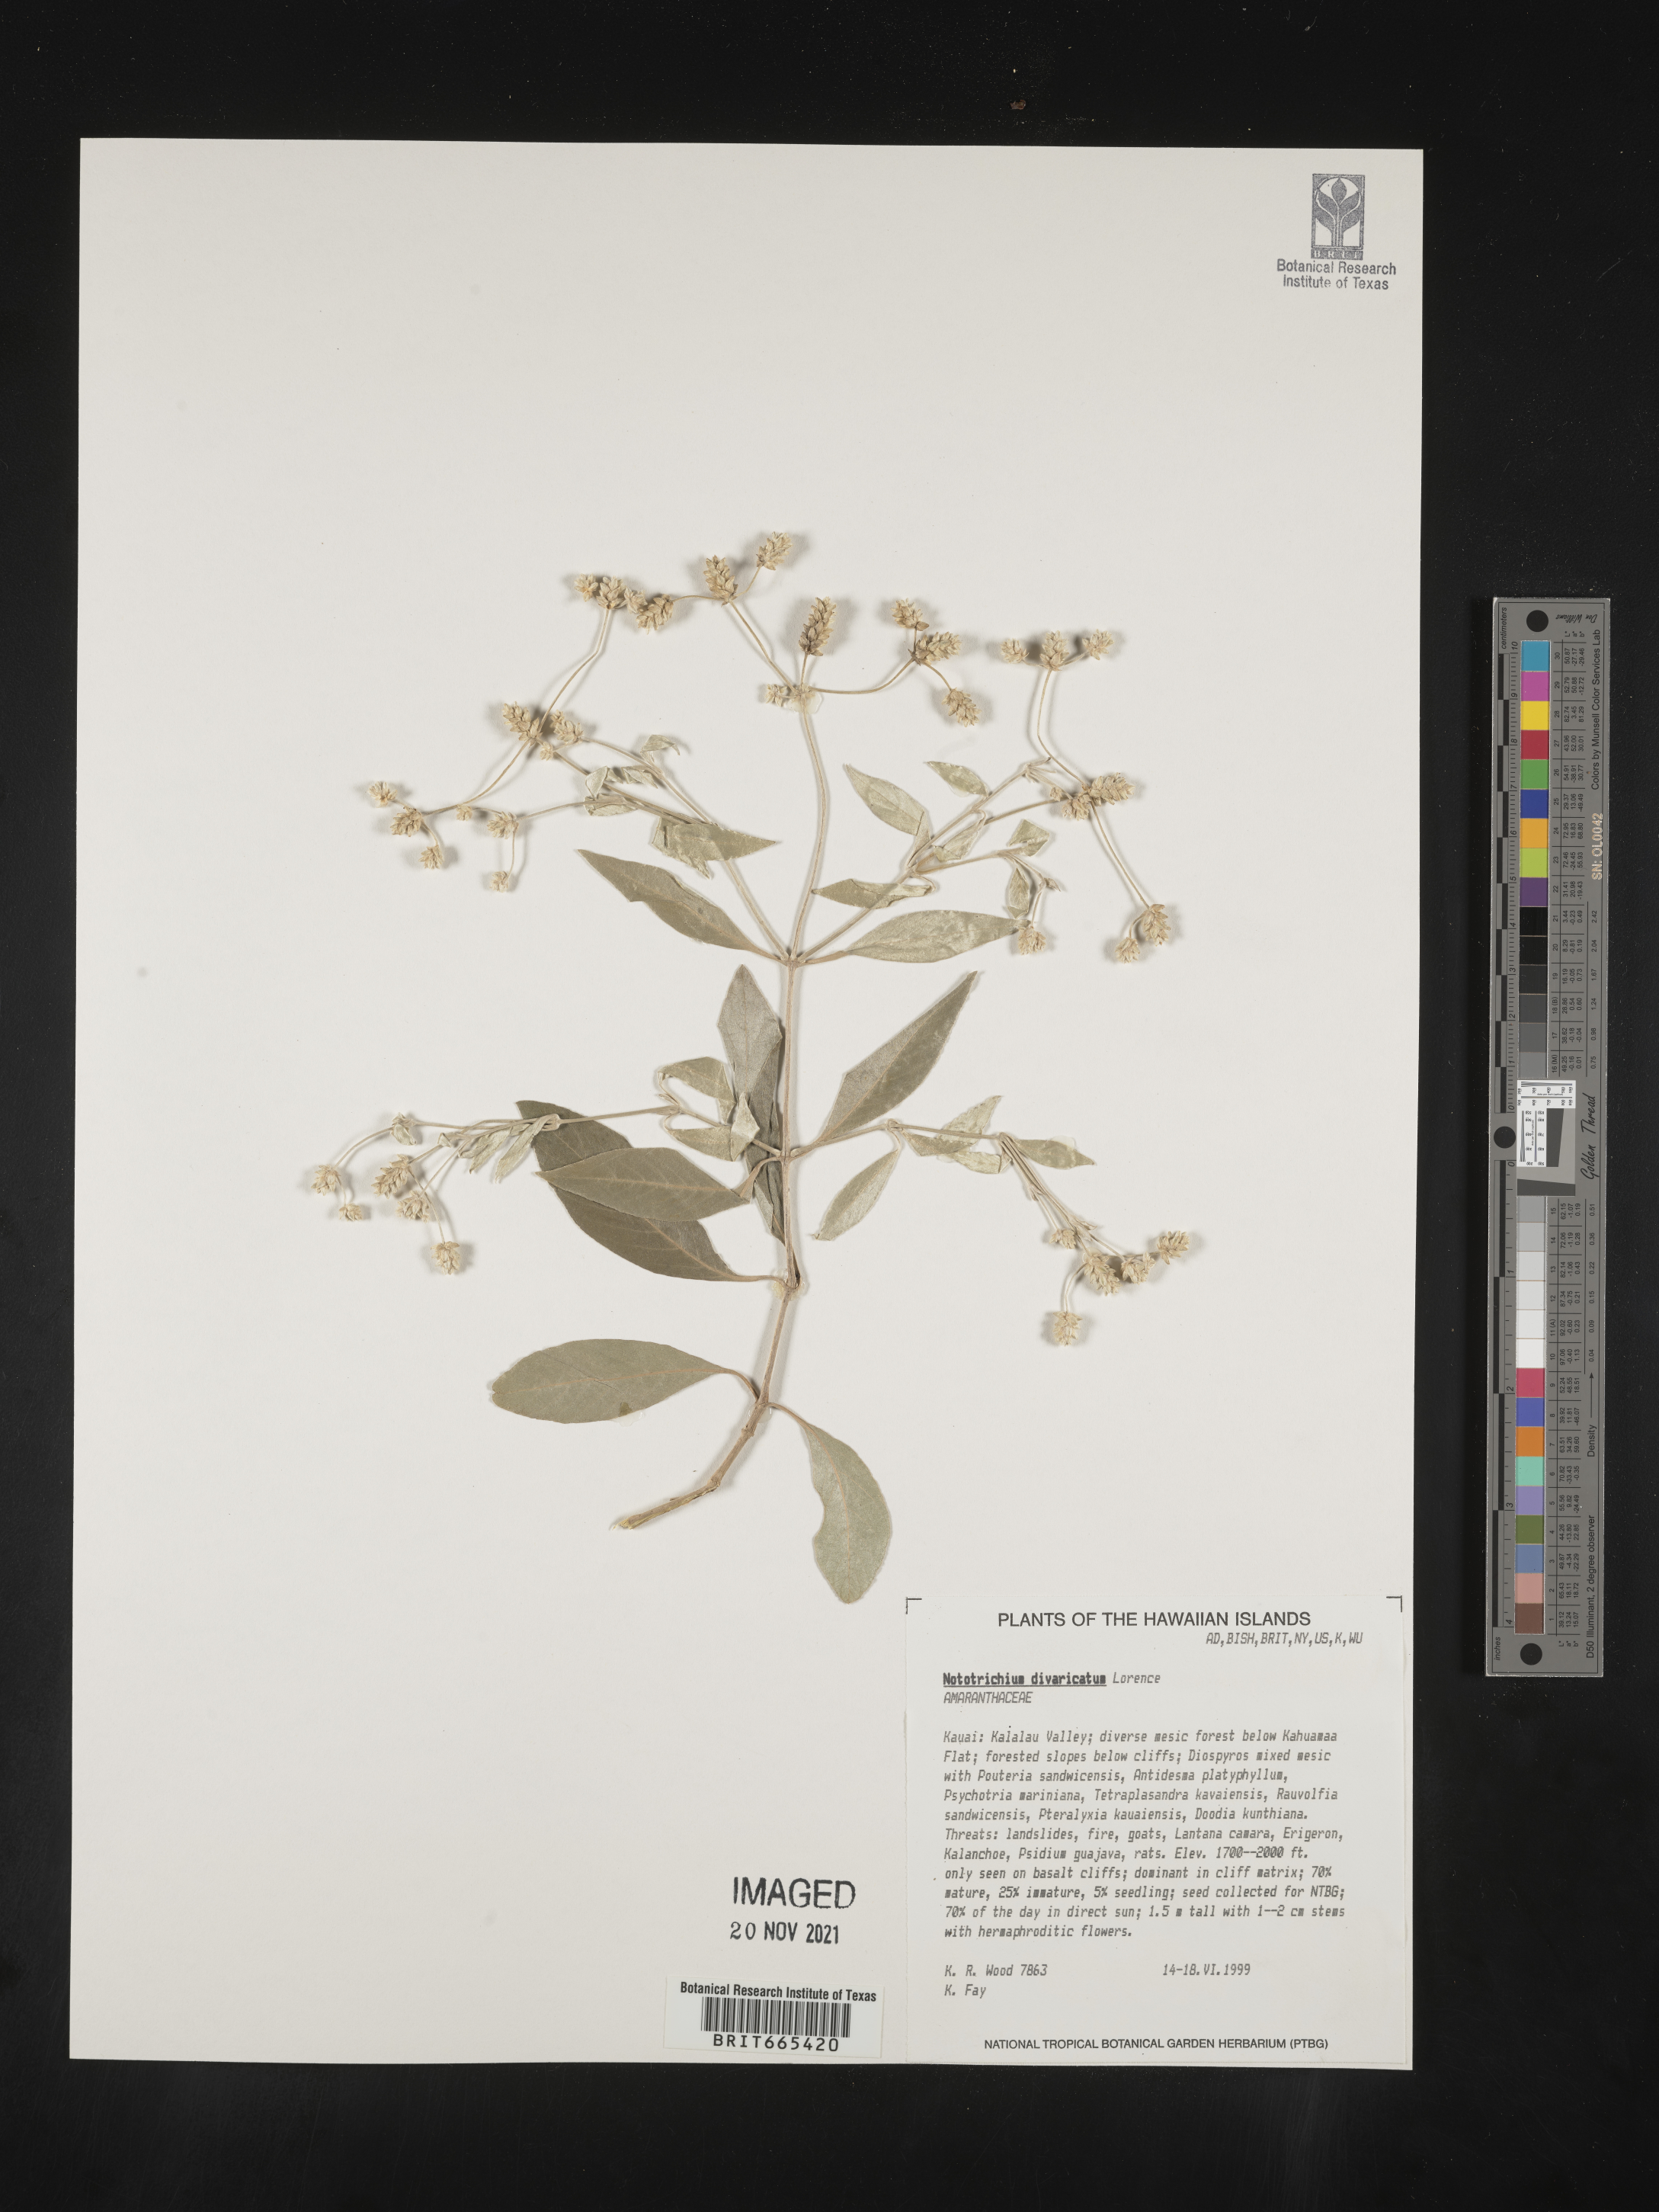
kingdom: Plantae
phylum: Tracheophyta
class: Magnoliopsida
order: Caryophyllales
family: Amaranthaceae
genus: Nototrichium
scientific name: Nototrichium
